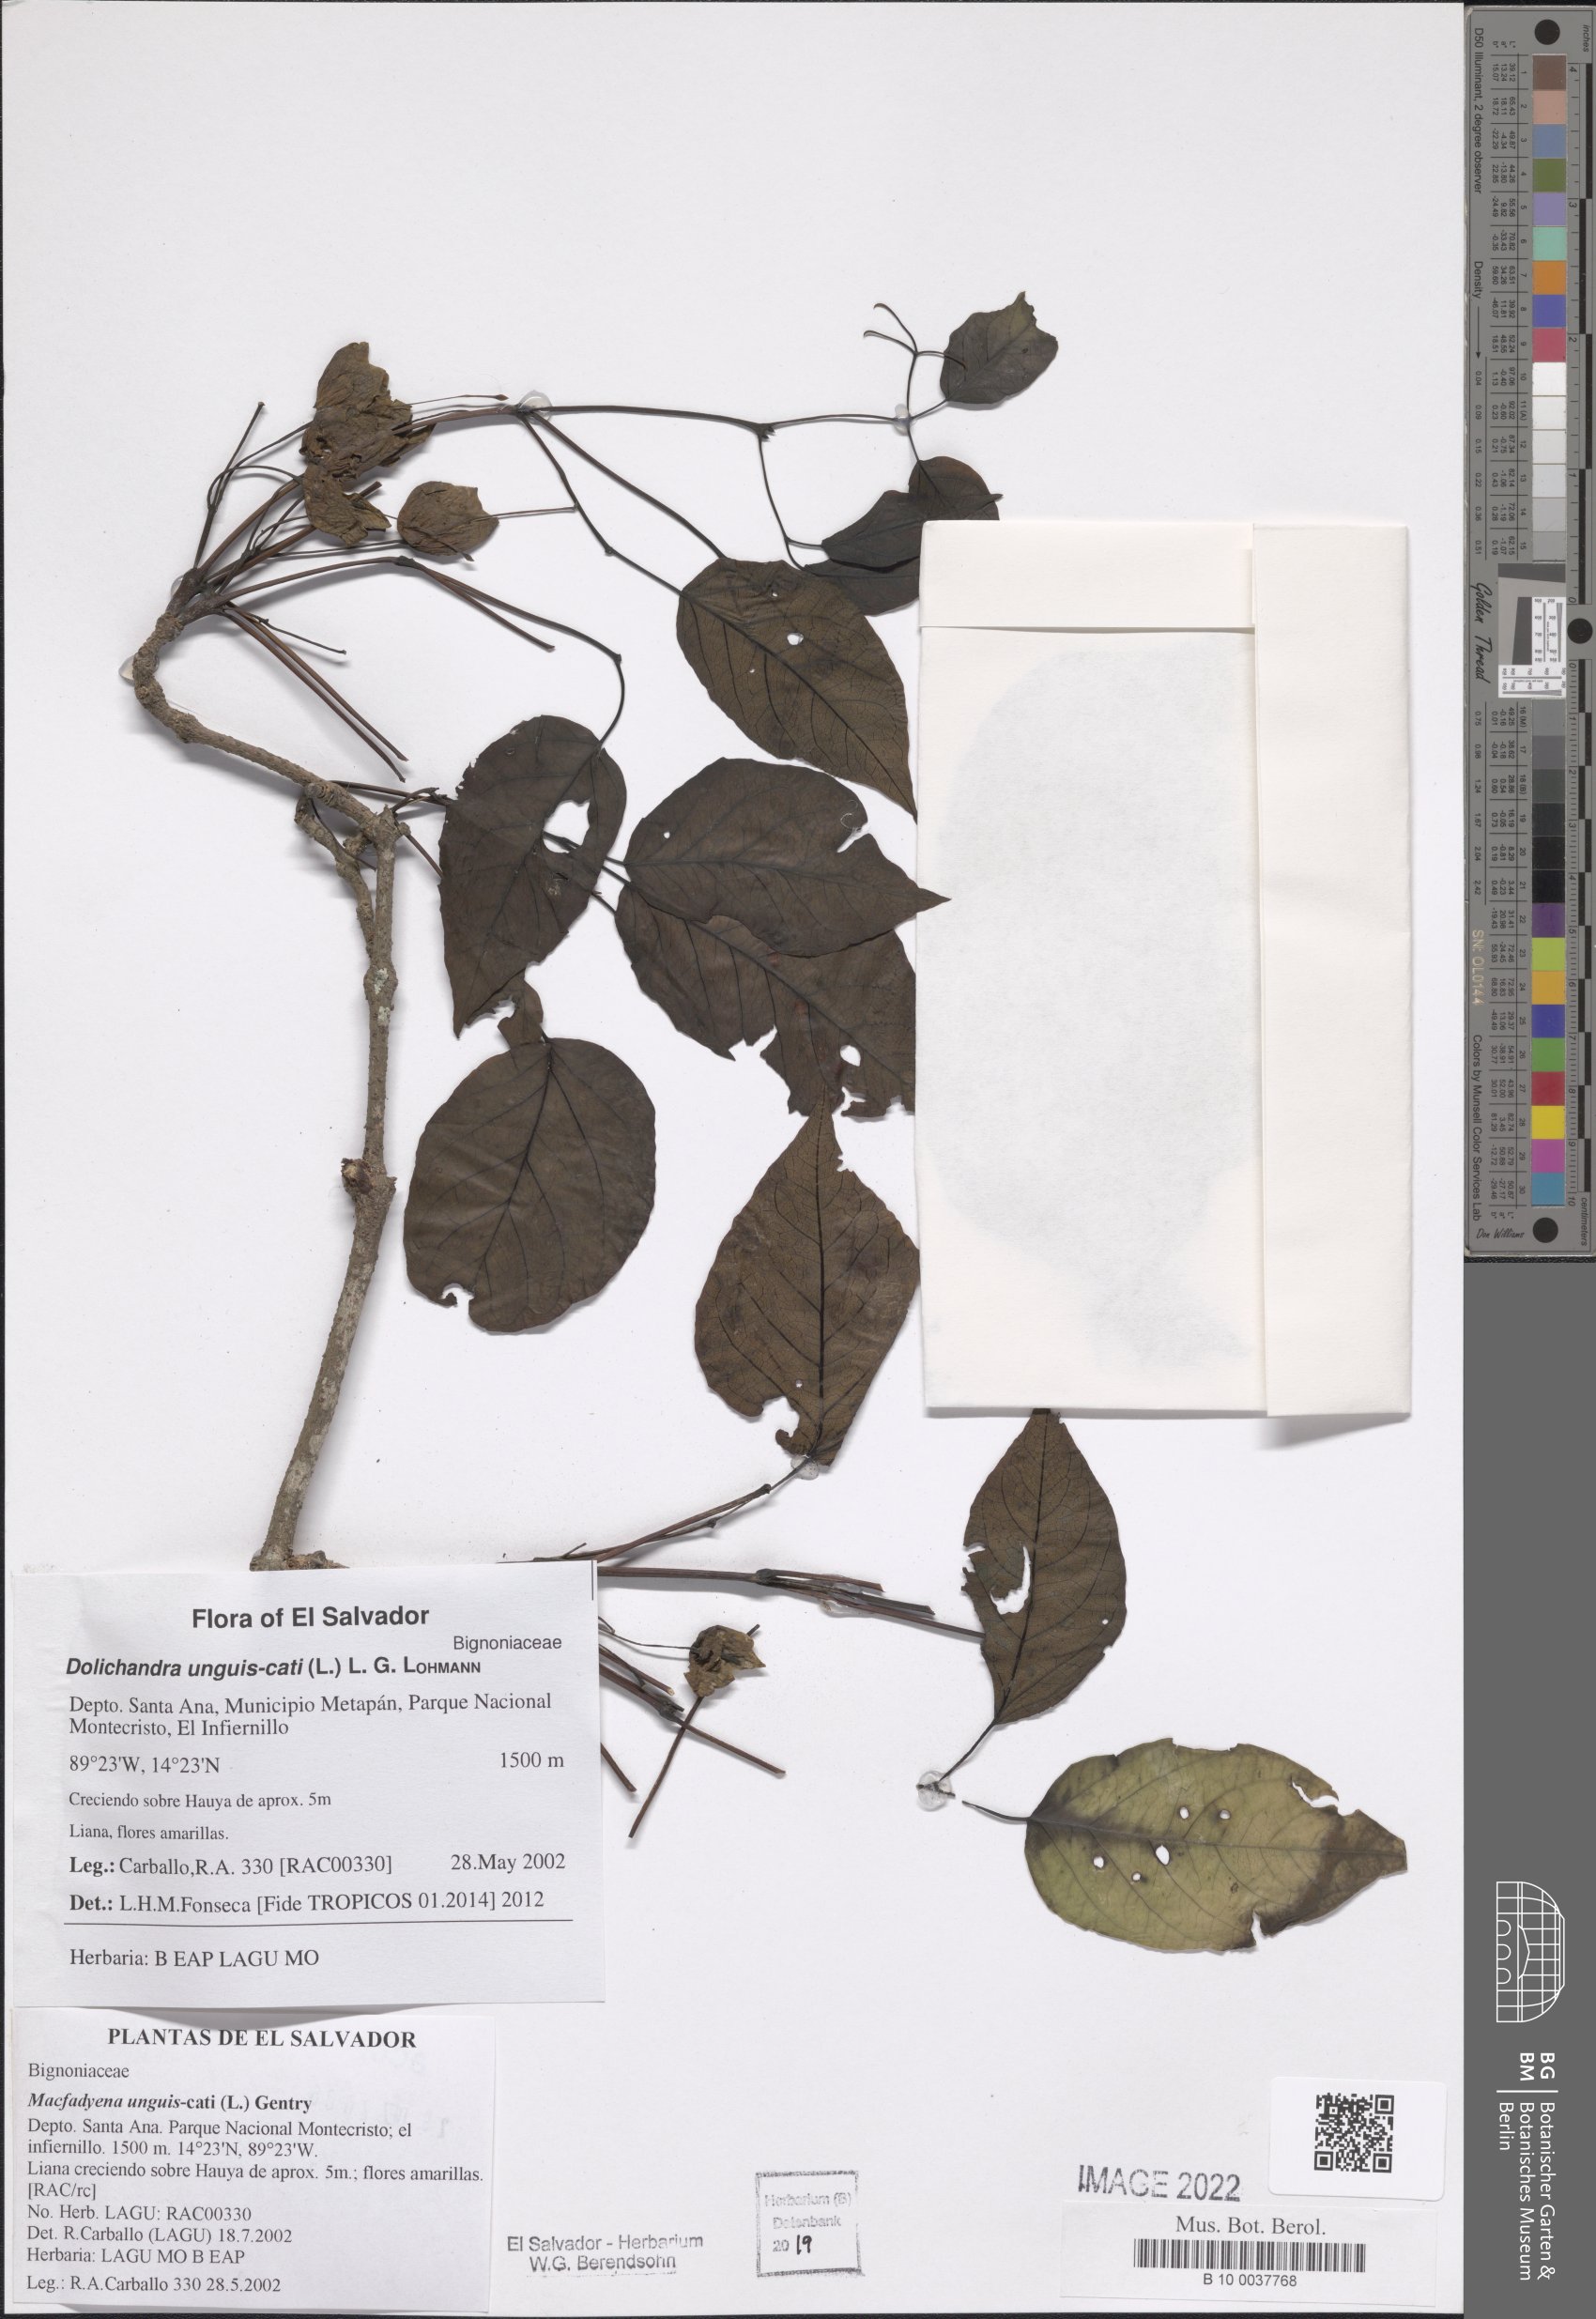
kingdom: Plantae
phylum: Tracheophyta
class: Magnoliopsida
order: Lamiales
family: Bignoniaceae
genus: Dolichandra
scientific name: Dolichandra unguis-cati
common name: Catclaw vine
